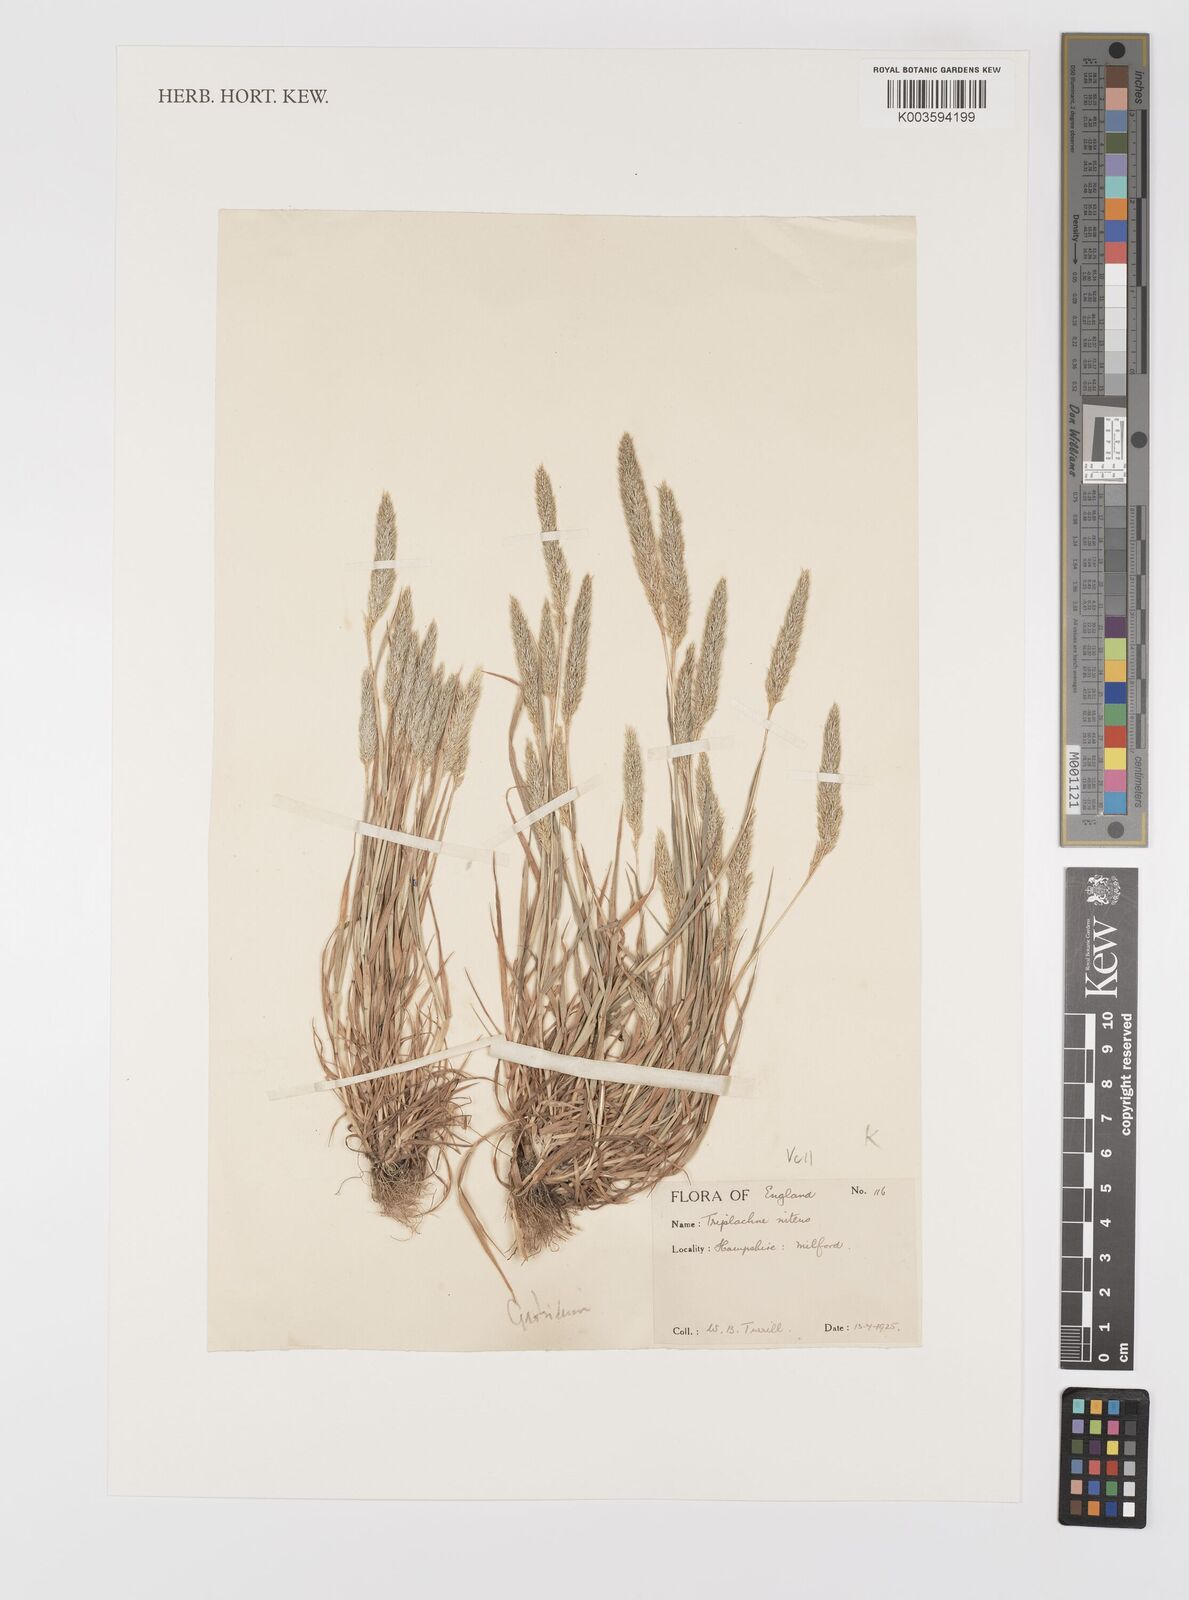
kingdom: Plantae
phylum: Tracheophyta
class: Liliopsida
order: Poales
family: Poaceae
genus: Gastridium
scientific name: Gastridium ventricosum
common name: Nit-grass
